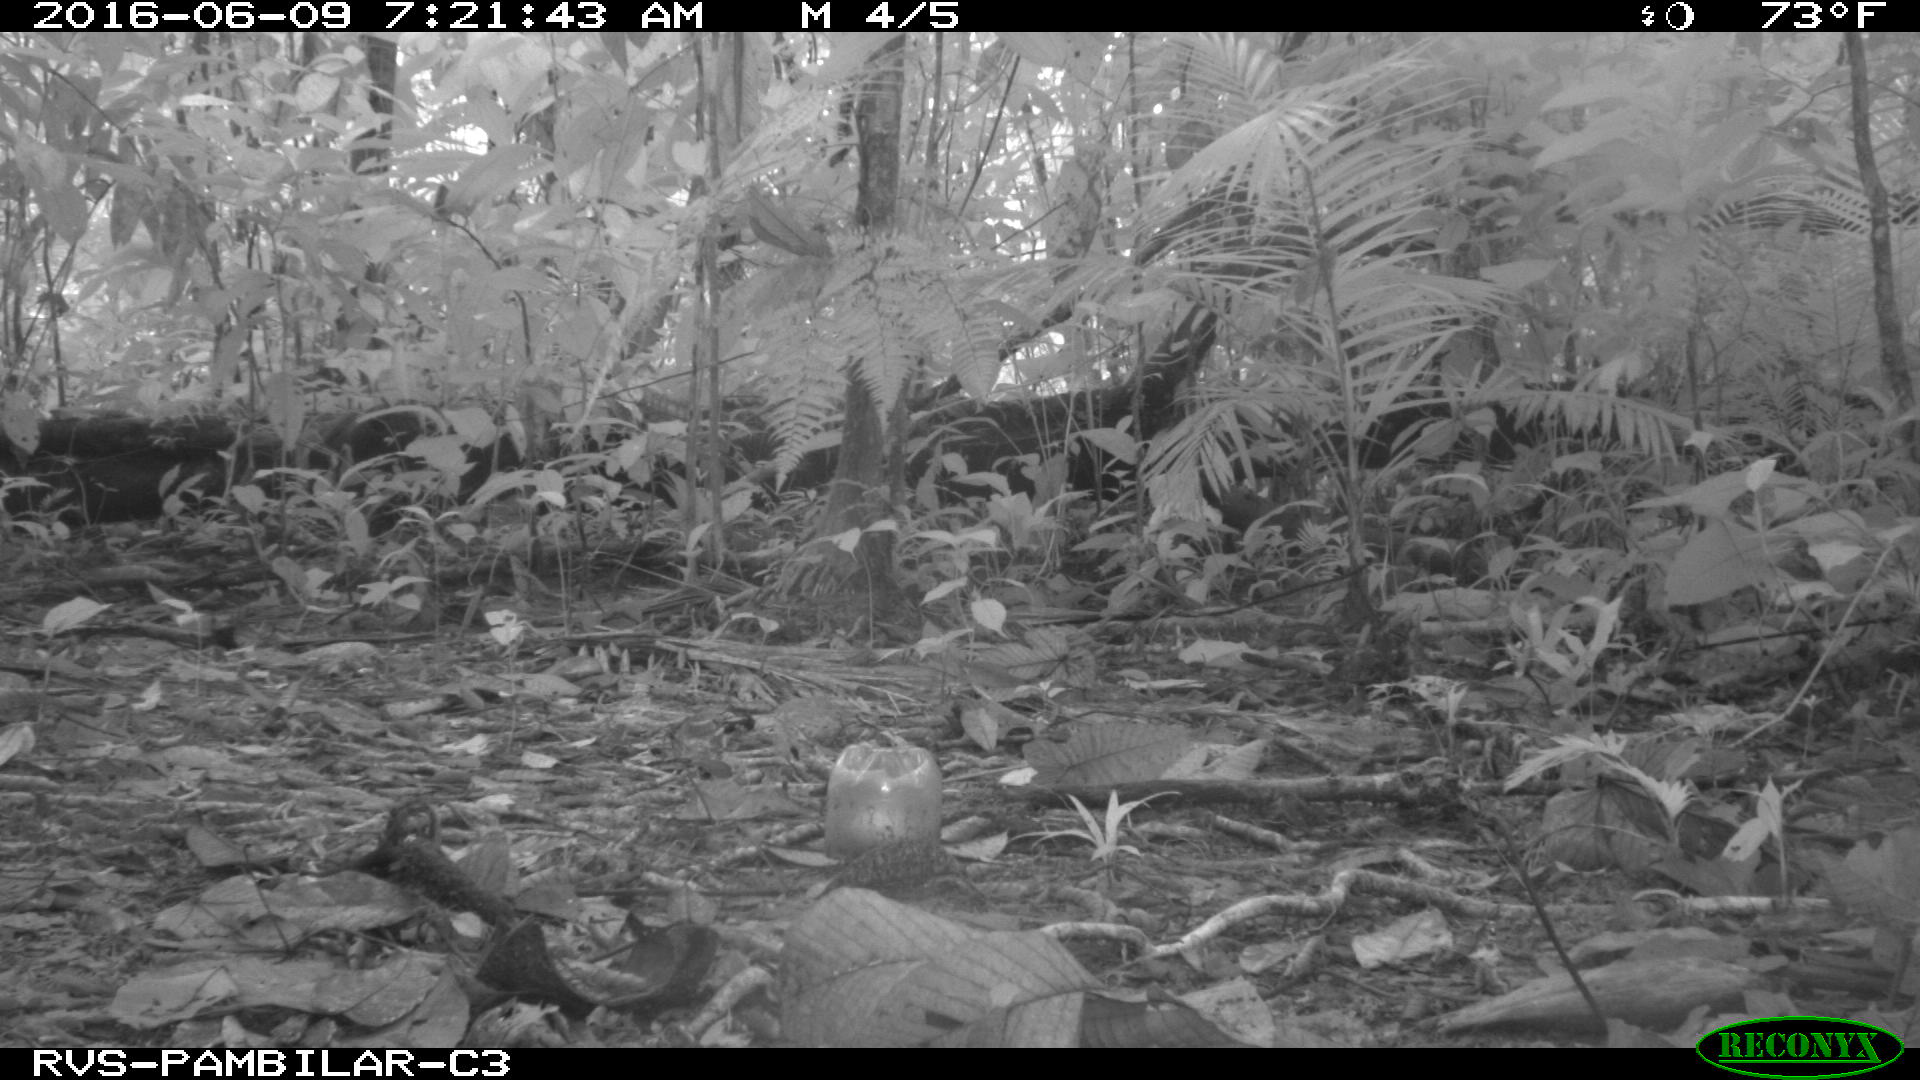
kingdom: Animalia
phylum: Chordata
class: Mammalia
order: Rodentia
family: Dasyproctidae
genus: Dasyprocta
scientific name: Dasyprocta punctata
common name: Central american agouti
